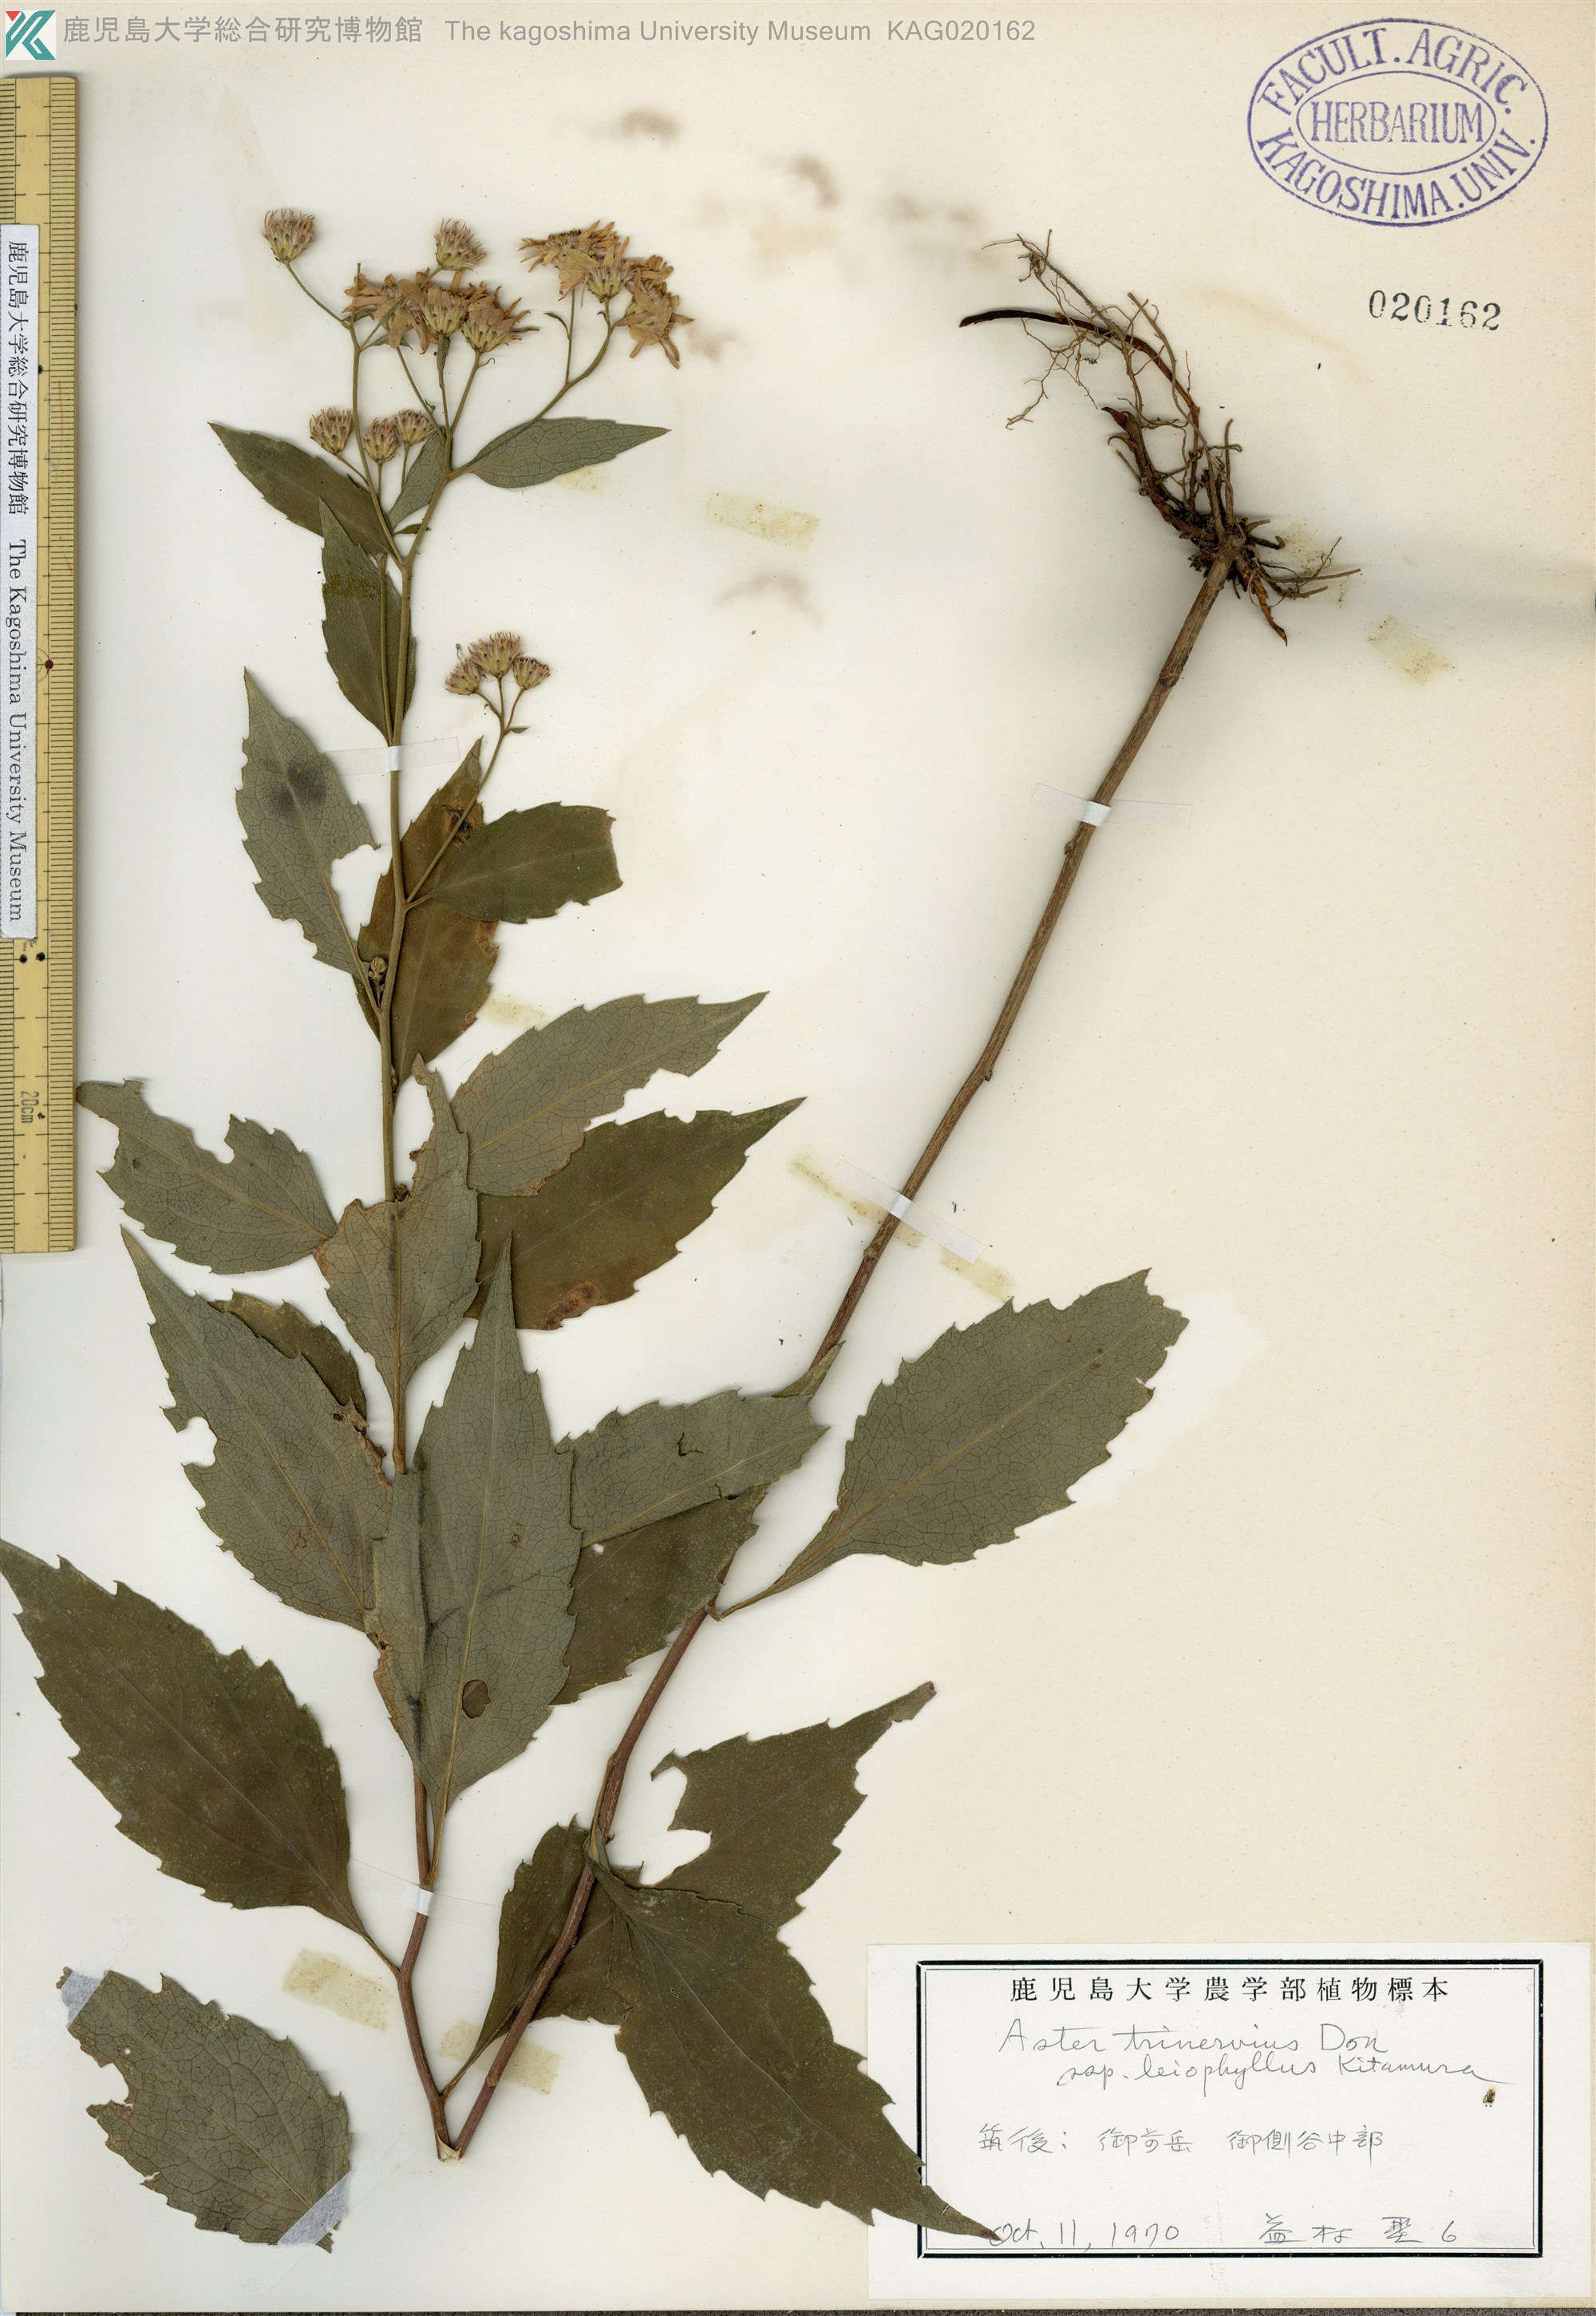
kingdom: Plantae
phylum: Tracheophyta
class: Magnoliopsida
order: Asterales
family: Asteraceae
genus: Aster
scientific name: Aster ageratoides
